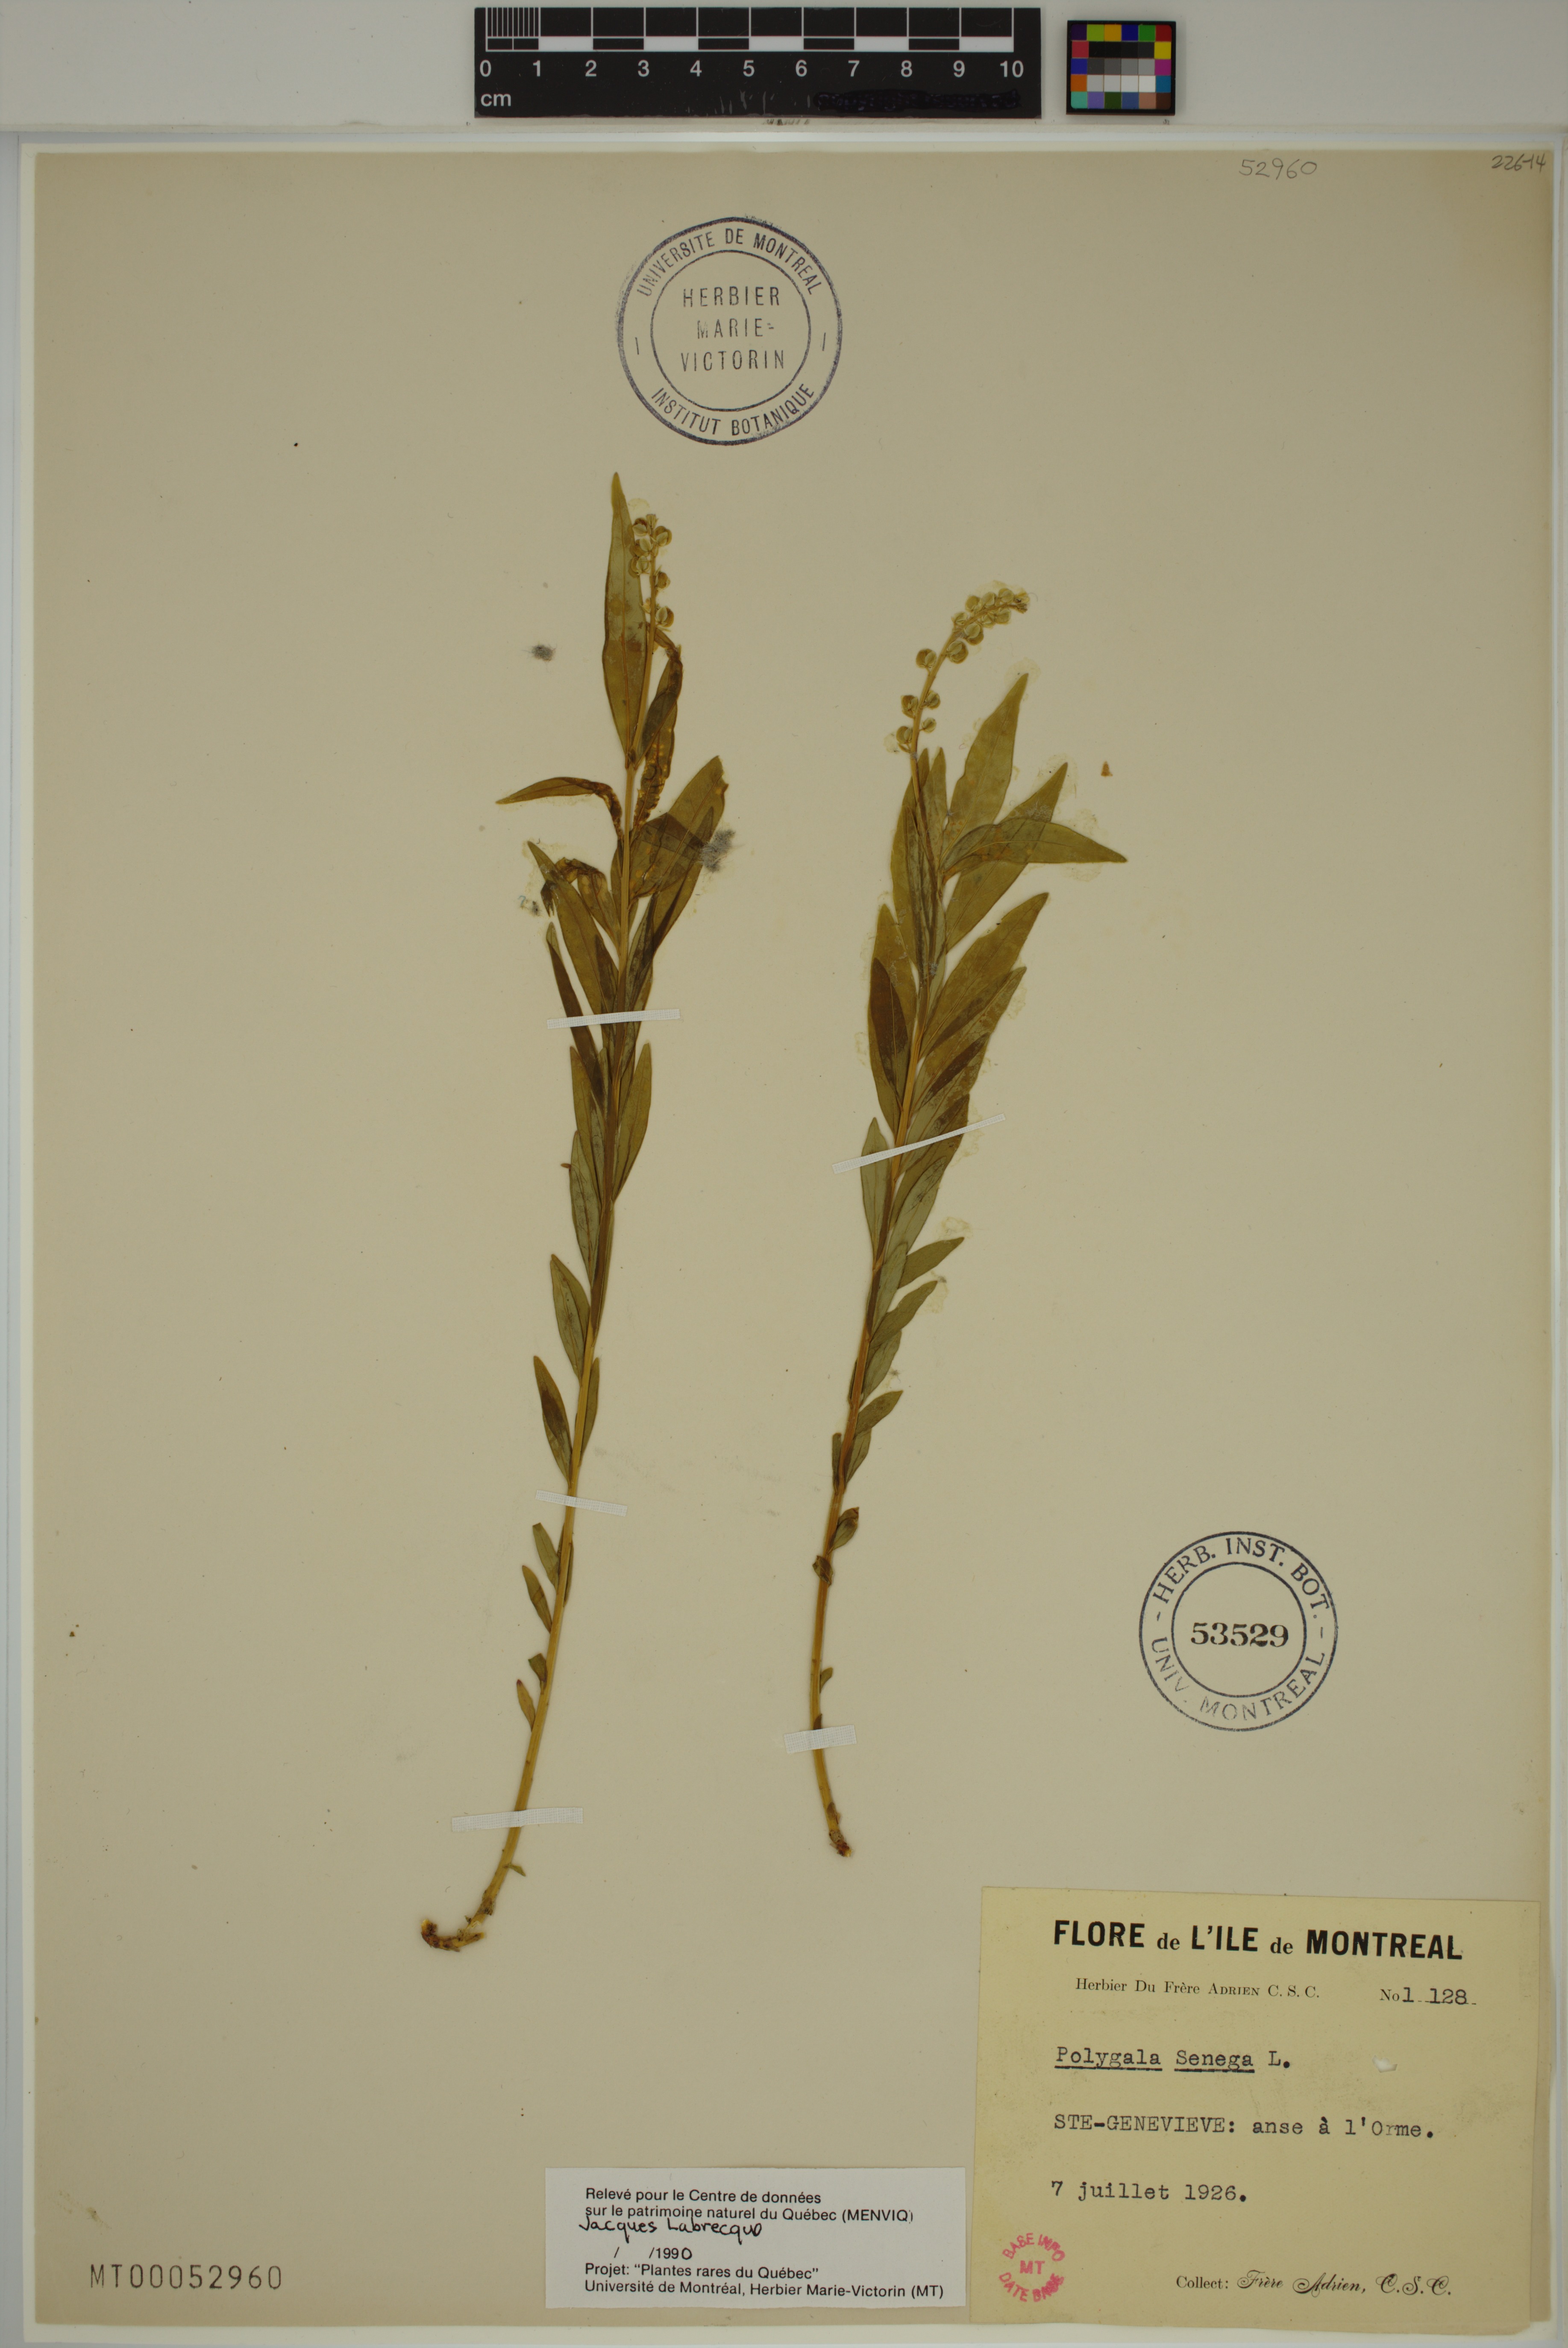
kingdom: Plantae
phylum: Tracheophyta
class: Magnoliopsida
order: Fabales
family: Polygalaceae
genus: Polygala
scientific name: Polygala senega
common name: Seneca snakeroot
